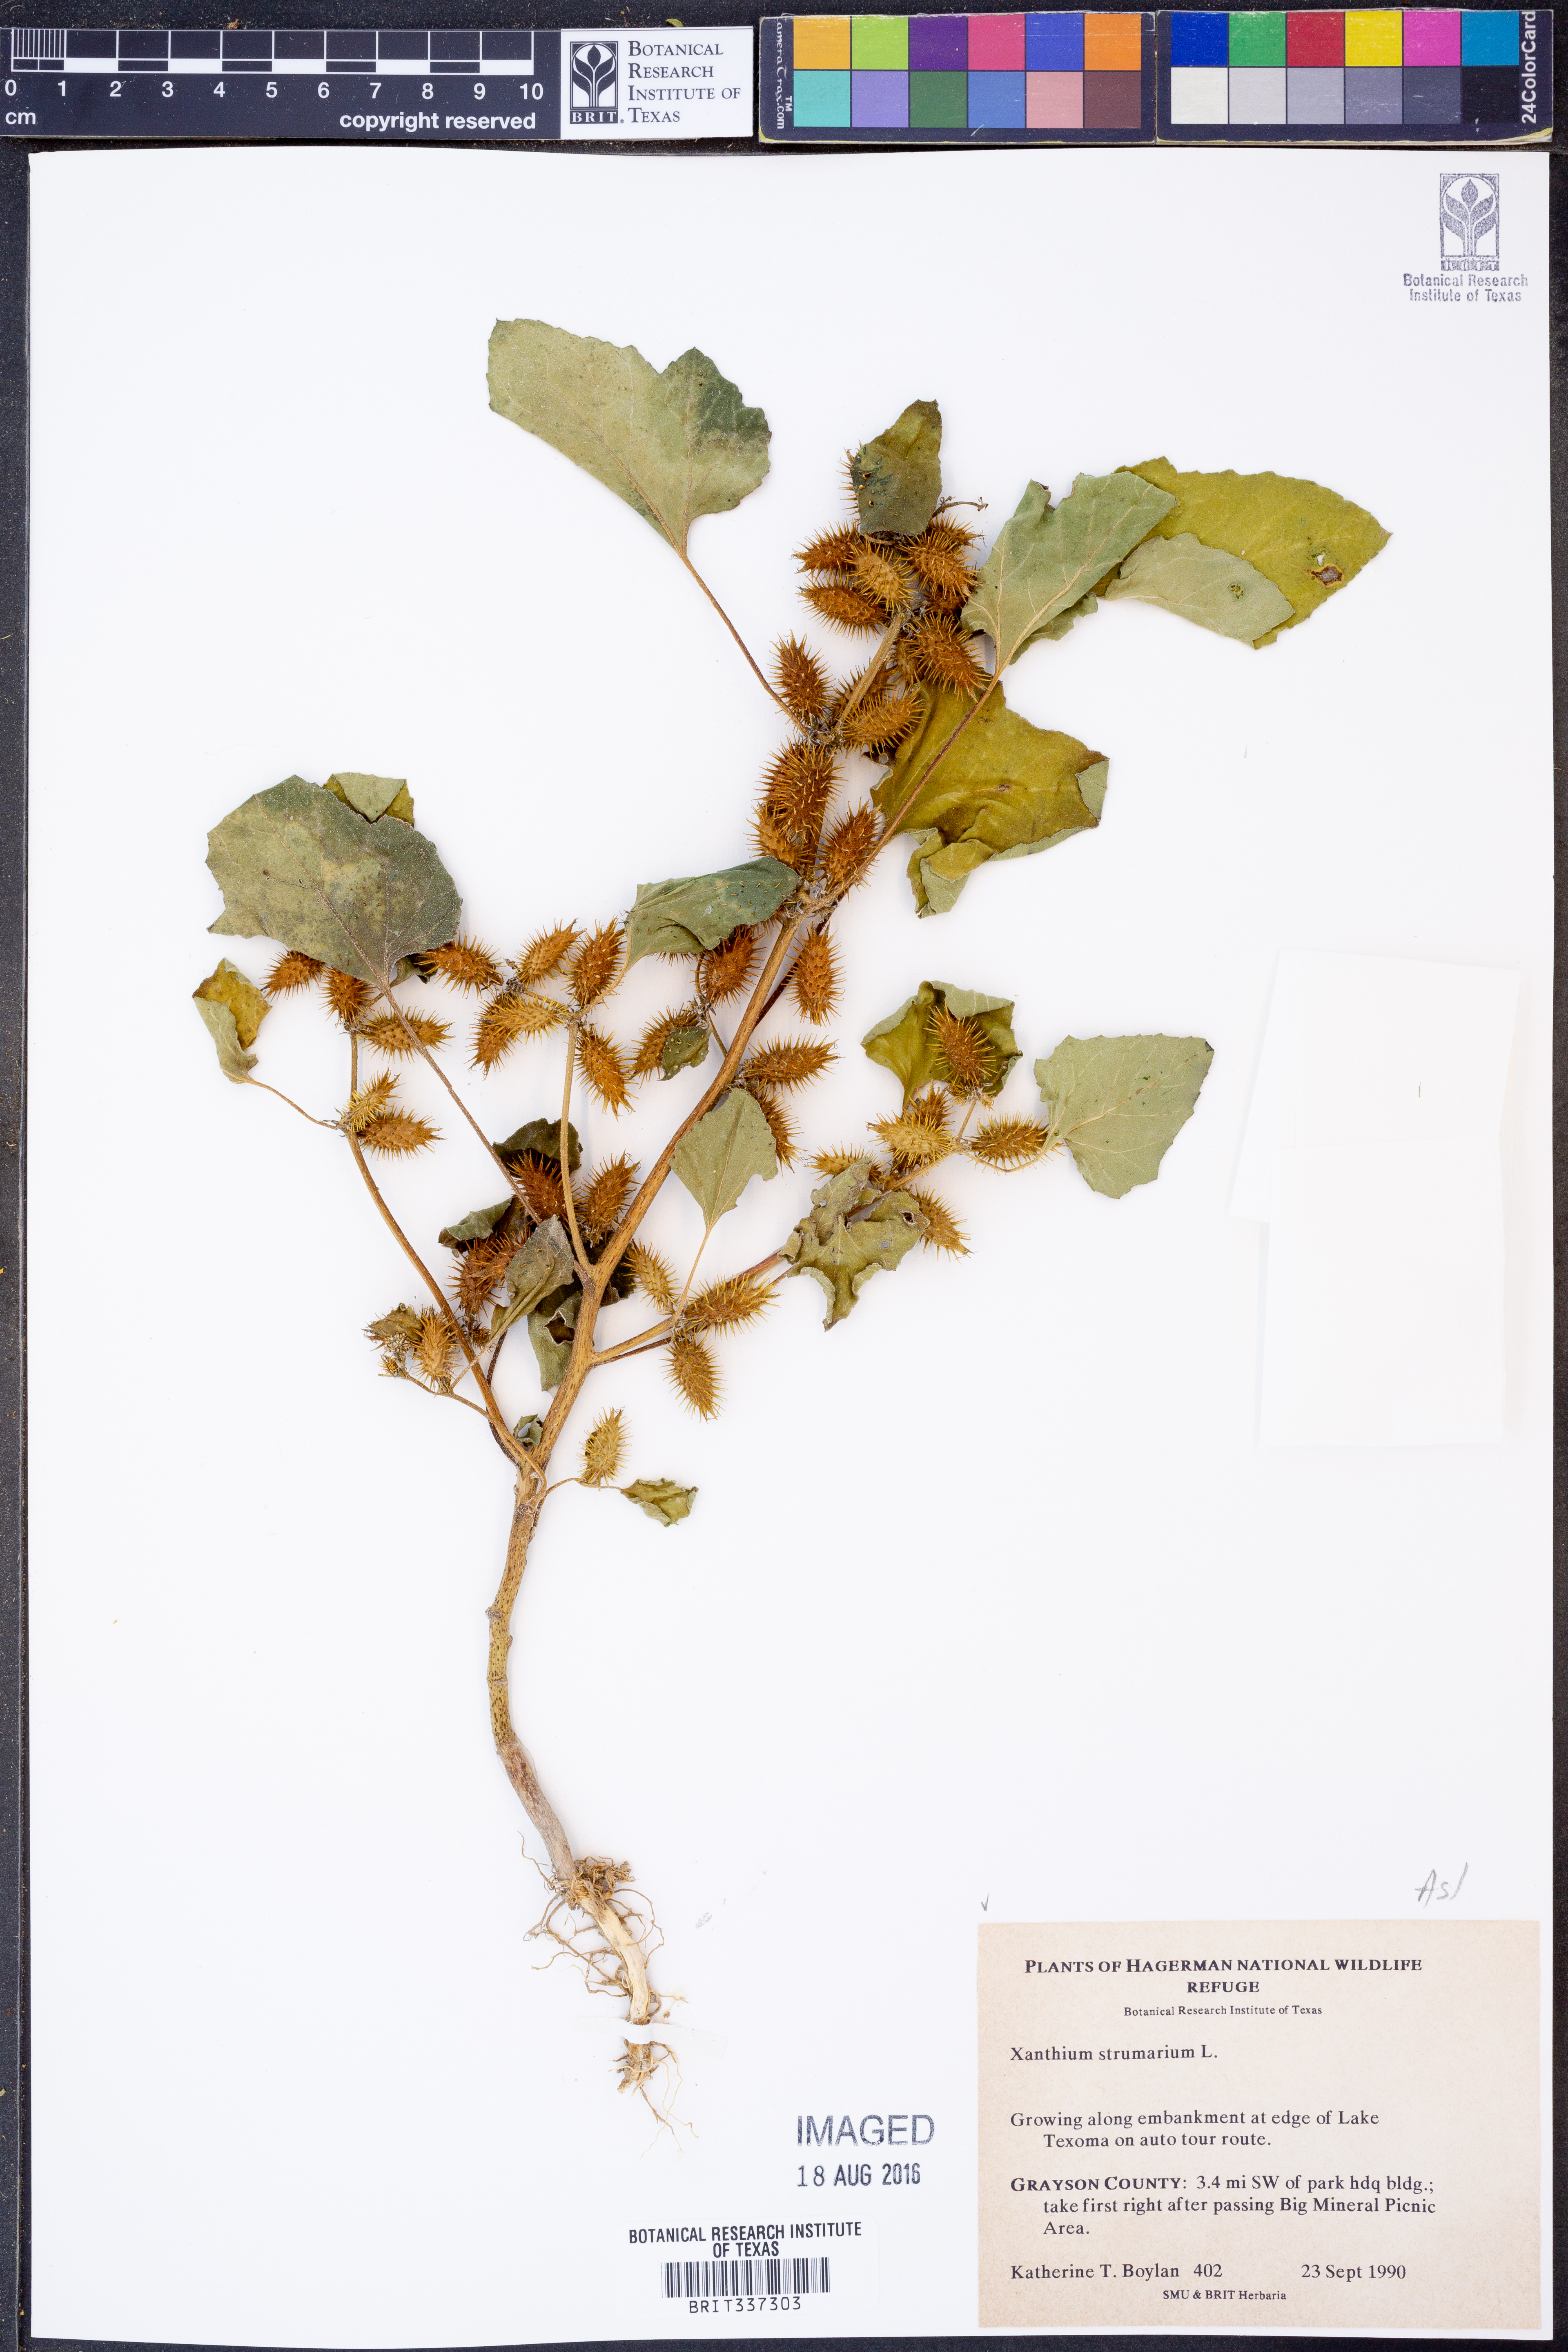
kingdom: Plantae
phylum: Tracheophyta
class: Magnoliopsida
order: Asterales
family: Asteraceae
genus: Xanthium
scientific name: Xanthium strumarium
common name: Rough cocklebur
